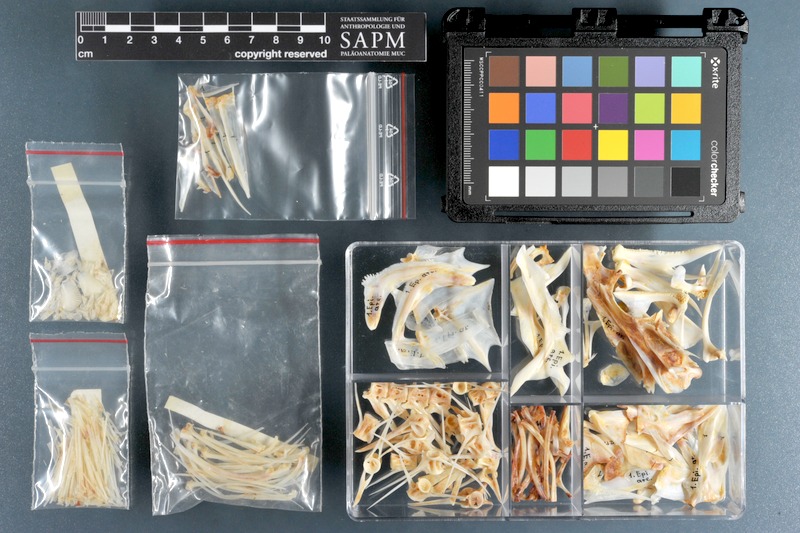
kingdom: Animalia
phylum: Chordata
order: Perciformes
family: Serranidae
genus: Epinephelus
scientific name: Epinephelus areolatus
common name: Areolate grouper
